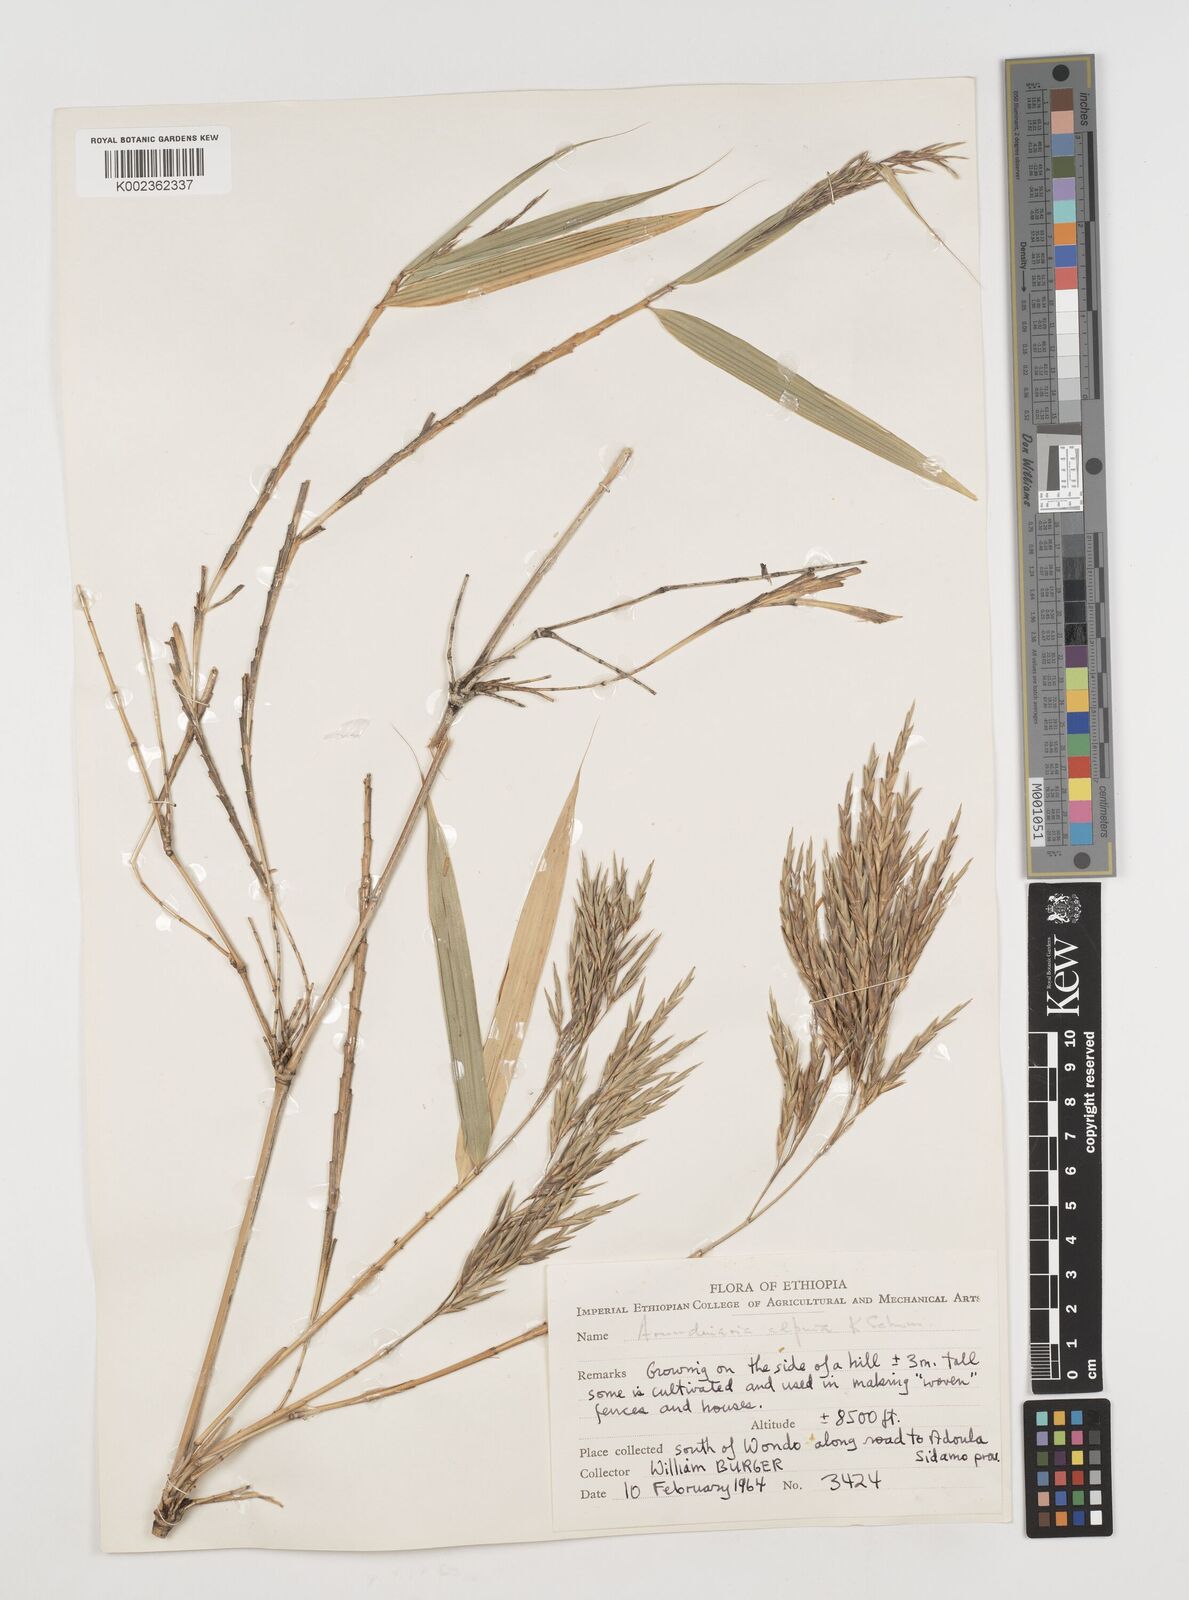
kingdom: Plantae
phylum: Tracheophyta
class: Liliopsida
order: Poales
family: Poaceae
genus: Oldeania
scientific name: Oldeania alpina
